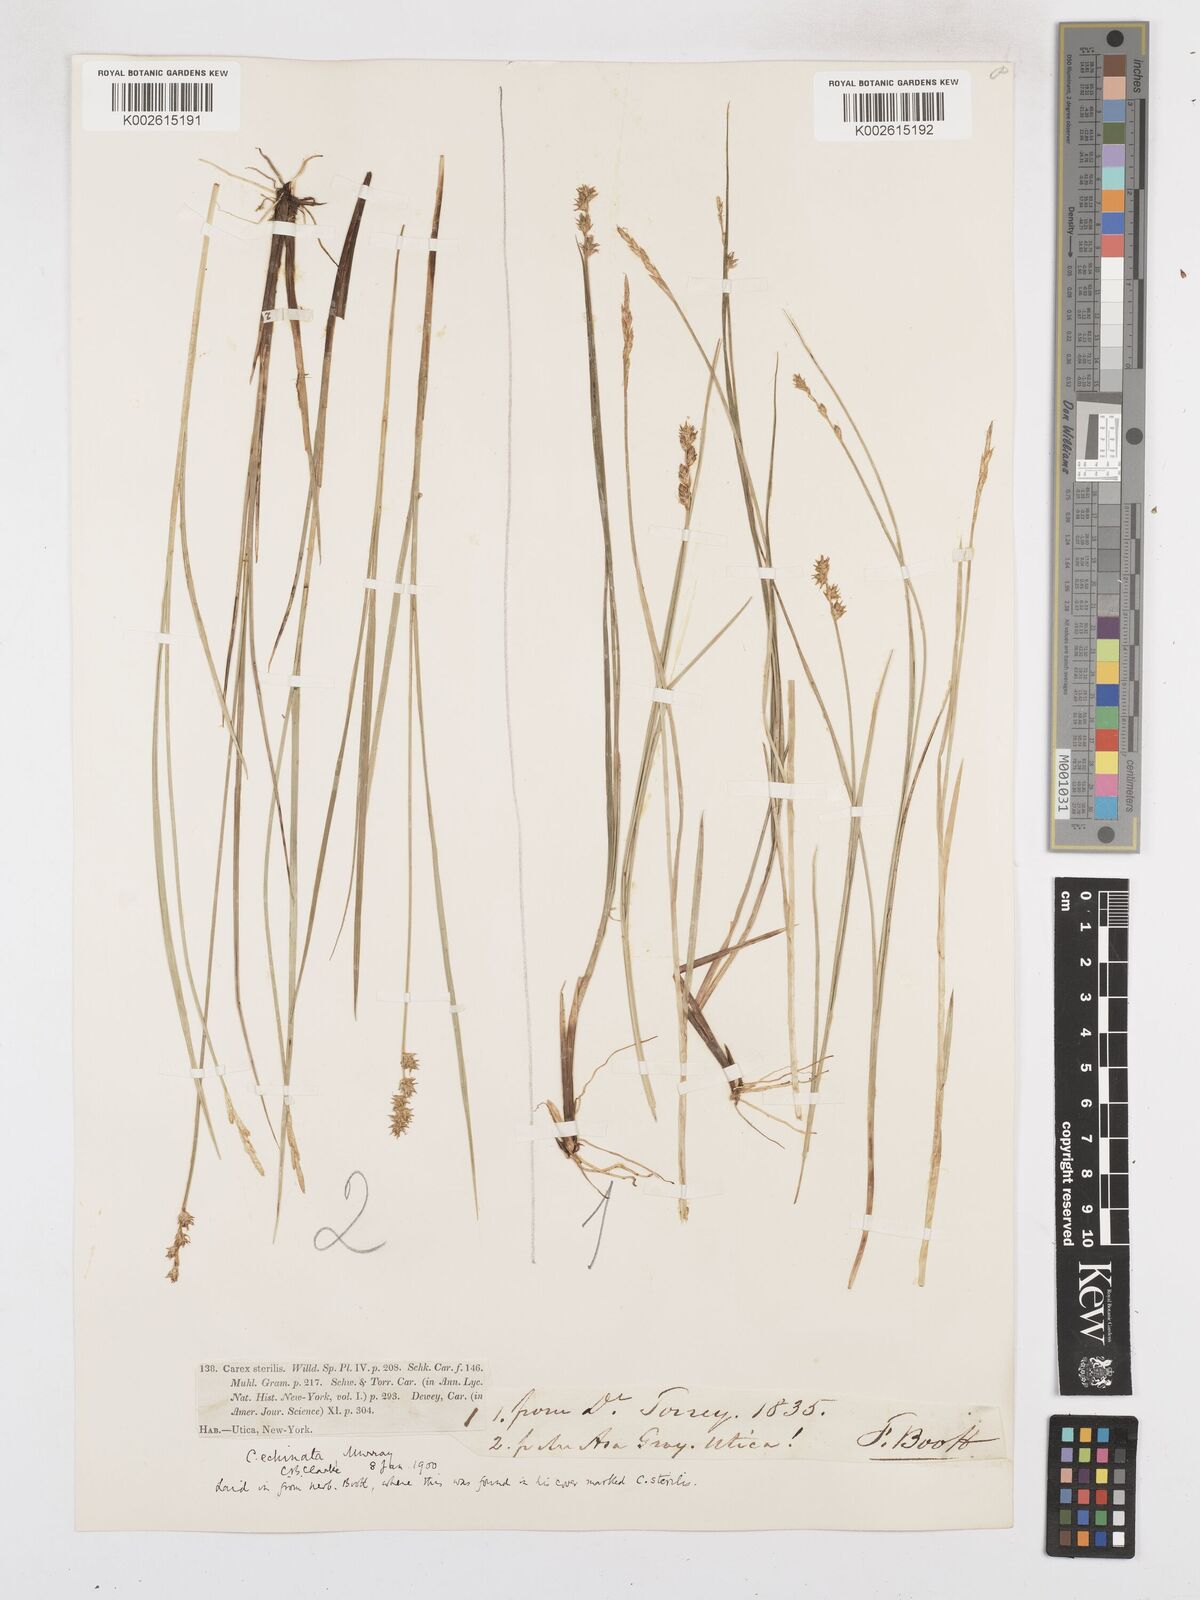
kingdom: Plantae
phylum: Tracheophyta
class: Liliopsida
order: Poales
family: Cyperaceae
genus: Carex
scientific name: Carex echinata
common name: Star sedge
